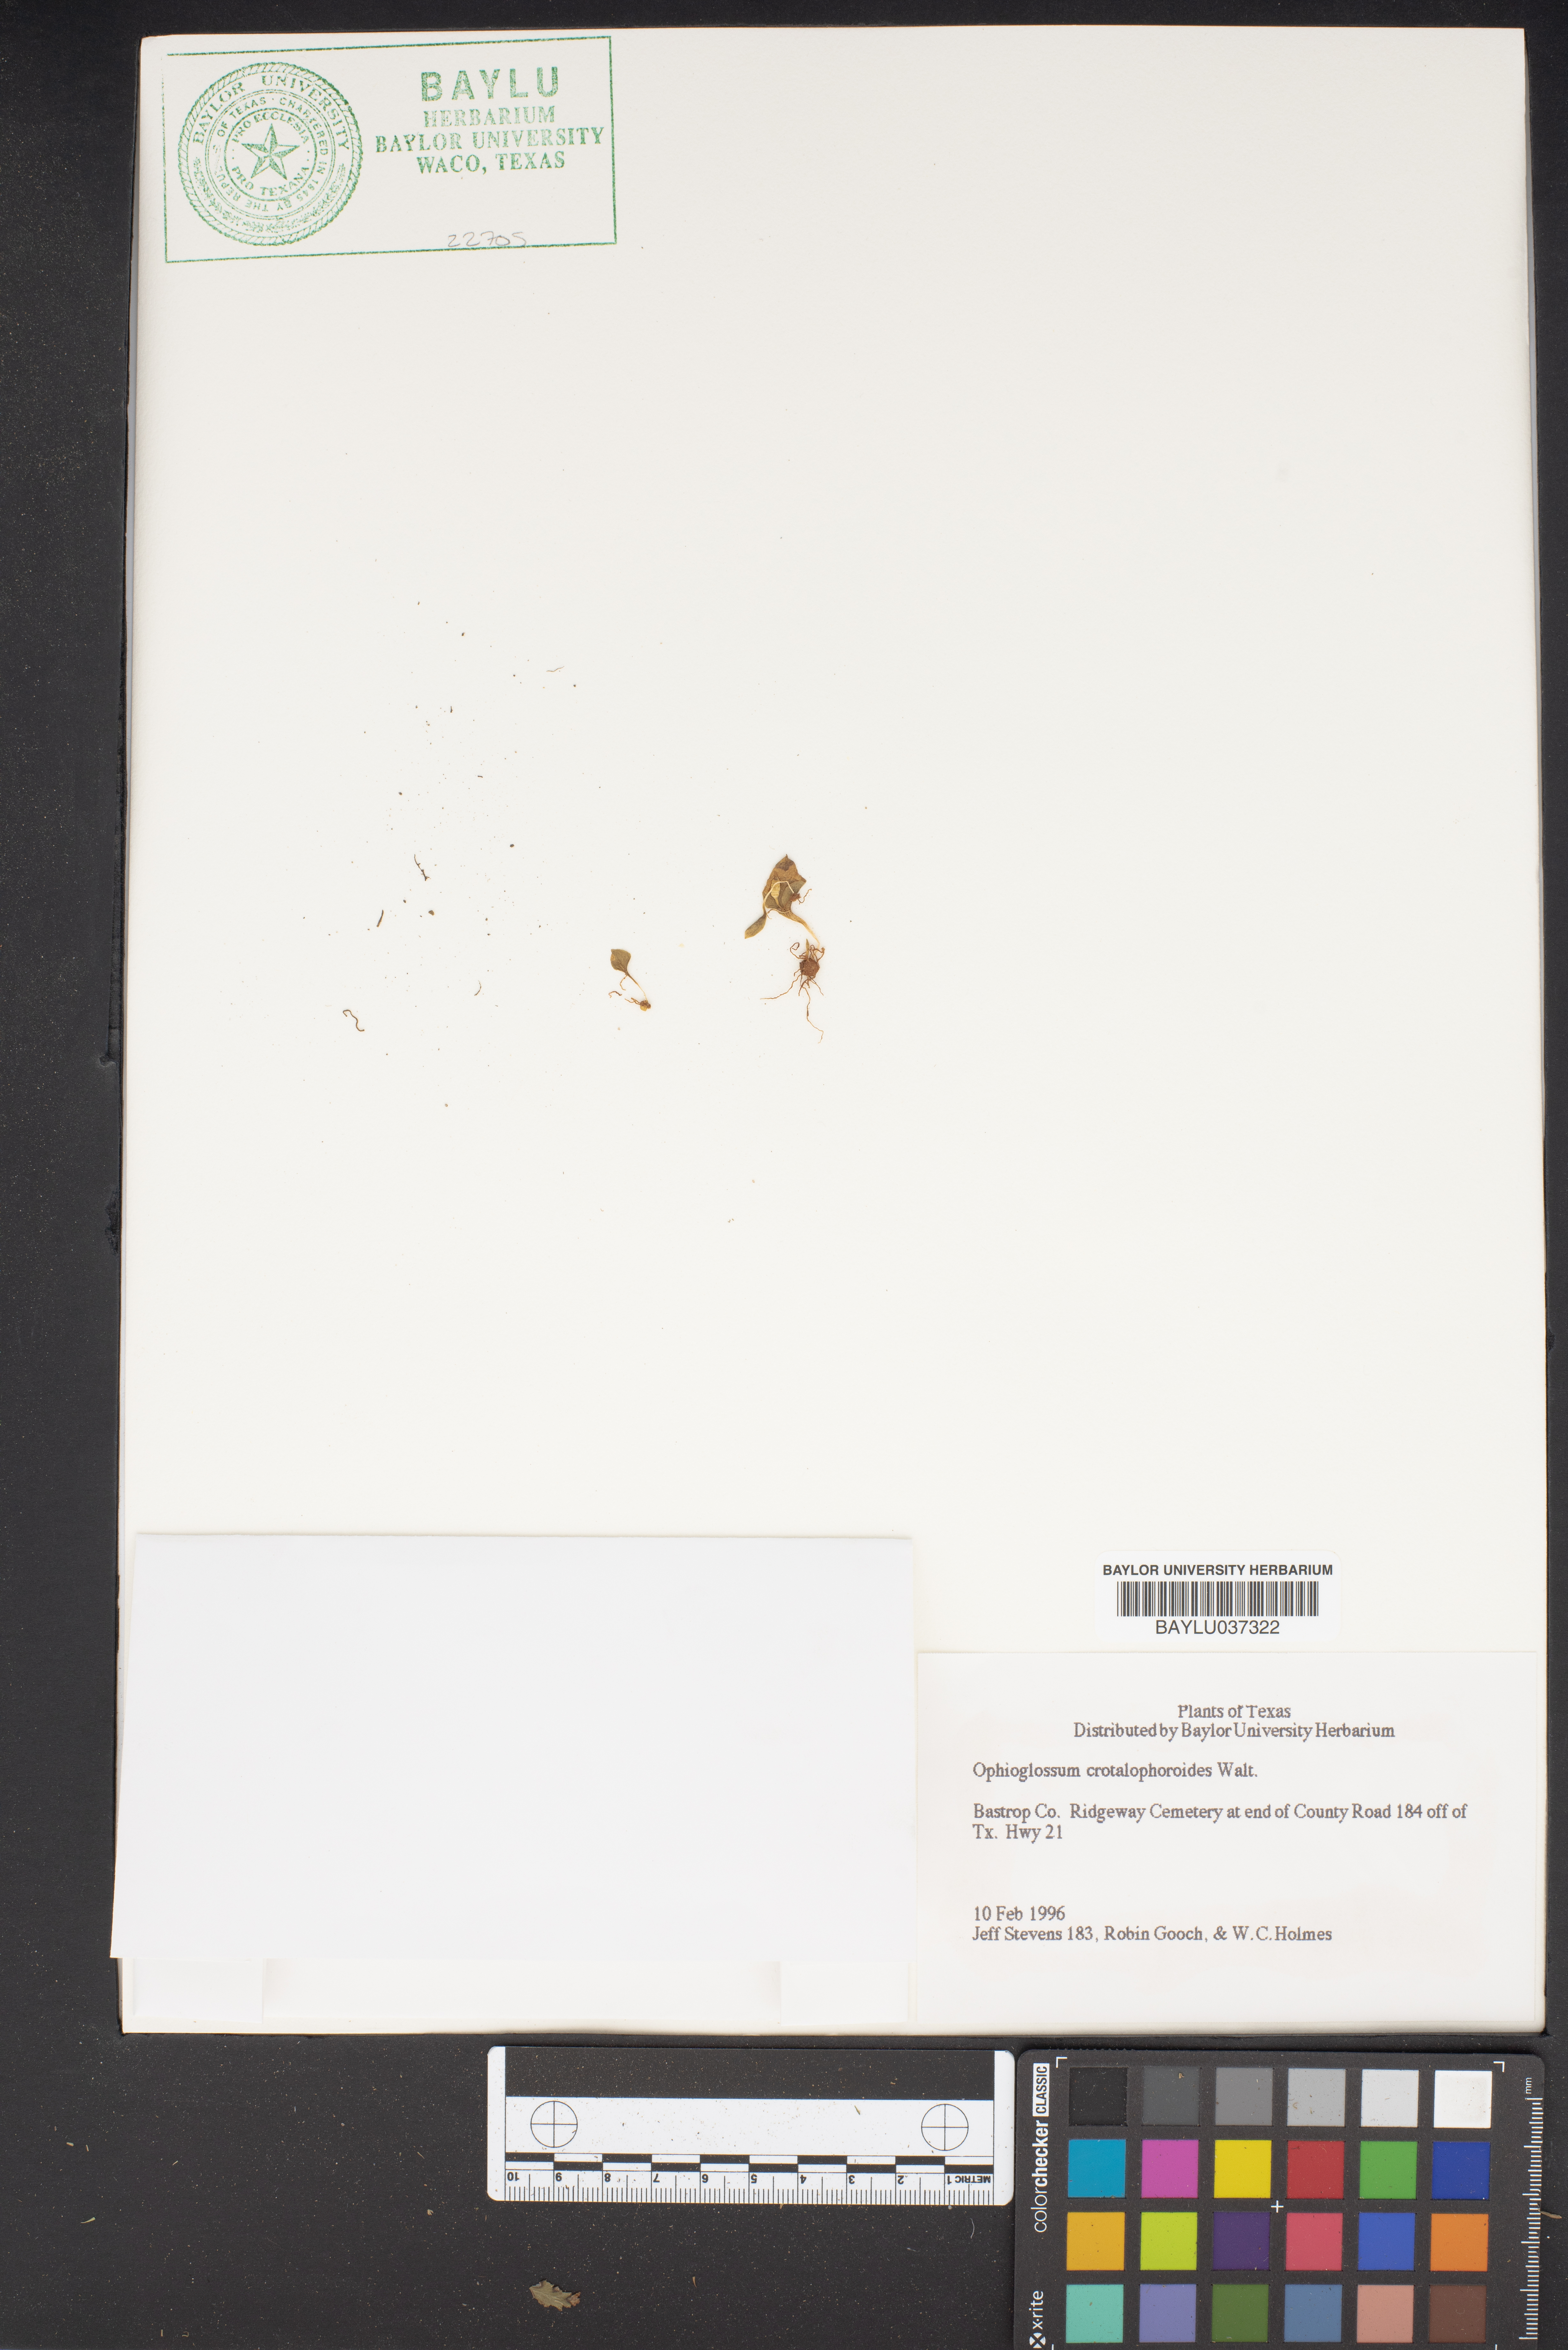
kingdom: Plantae
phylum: Tracheophyta
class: Polypodiopsida
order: Ophioglossales
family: Ophioglossaceae
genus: Ophioglossum
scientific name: Ophioglossum crotalophoroides
